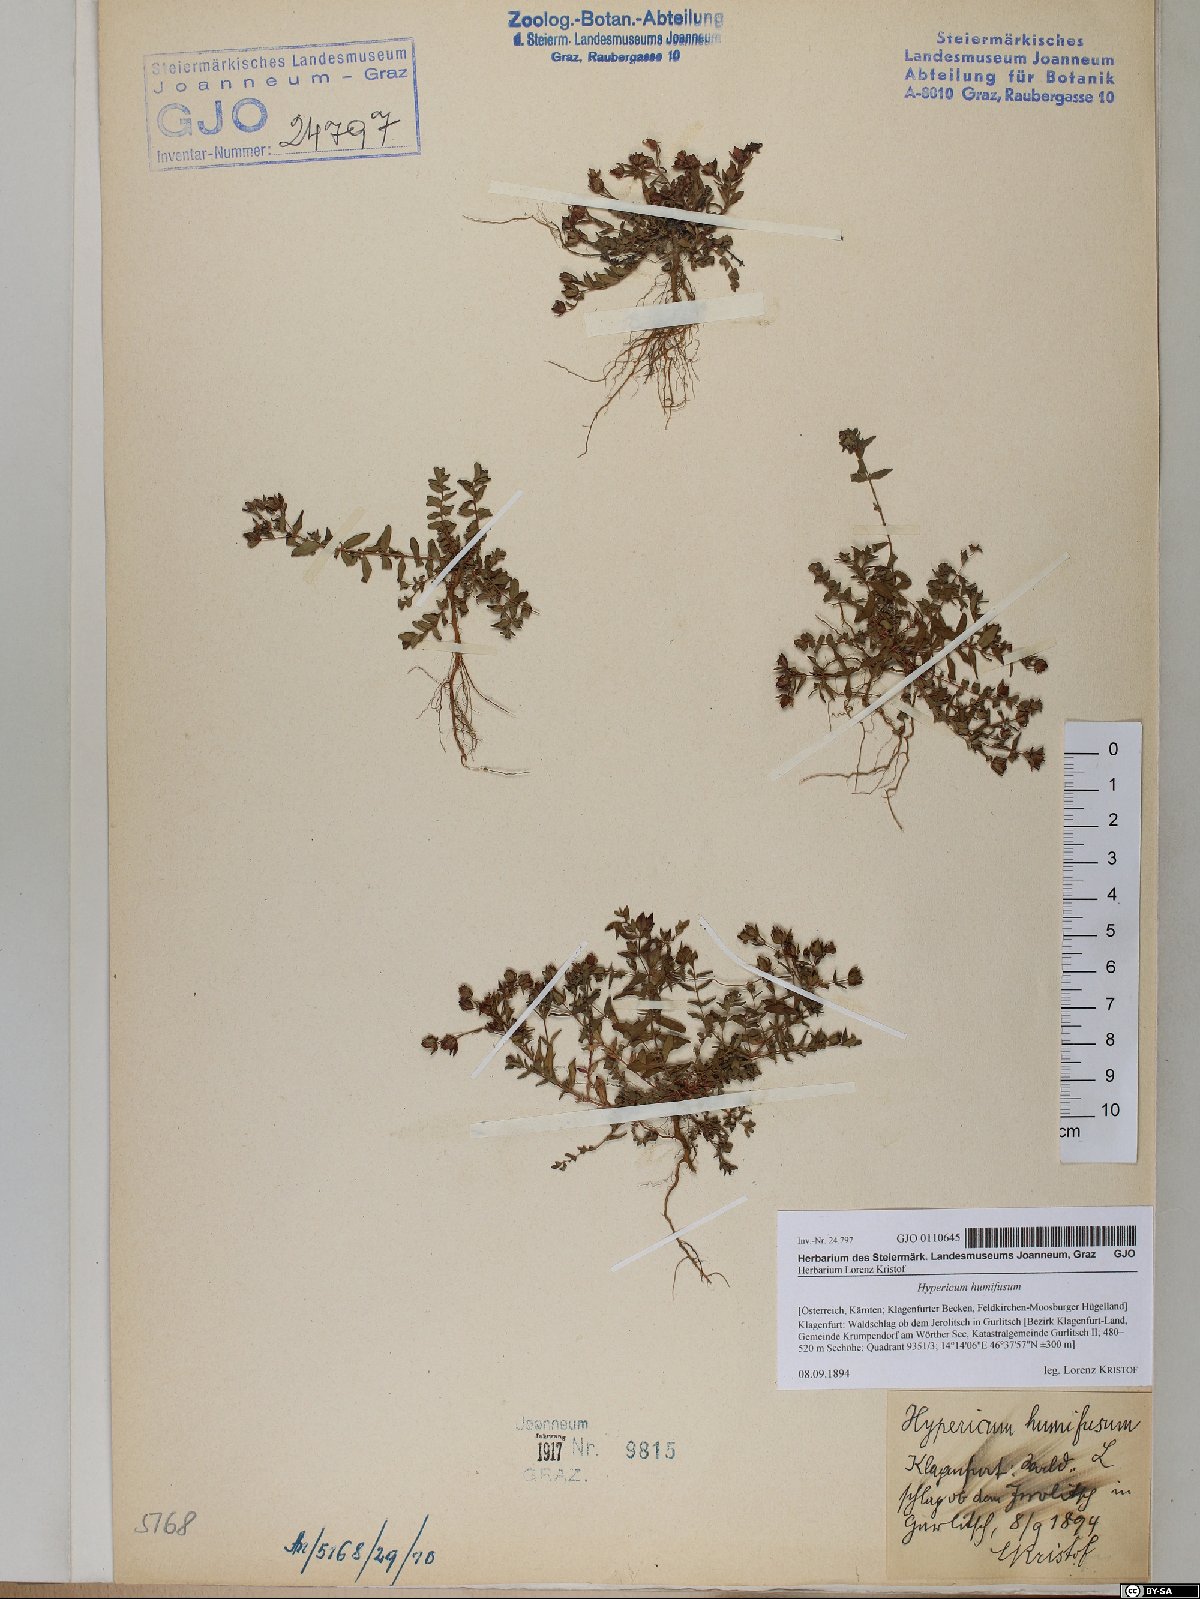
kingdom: Plantae
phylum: Tracheophyta
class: Magnoliopsida
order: Malpighiales
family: Hypericaceae
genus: Hypericum
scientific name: Hypericum humifusum
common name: Trailing st. john's-wort
